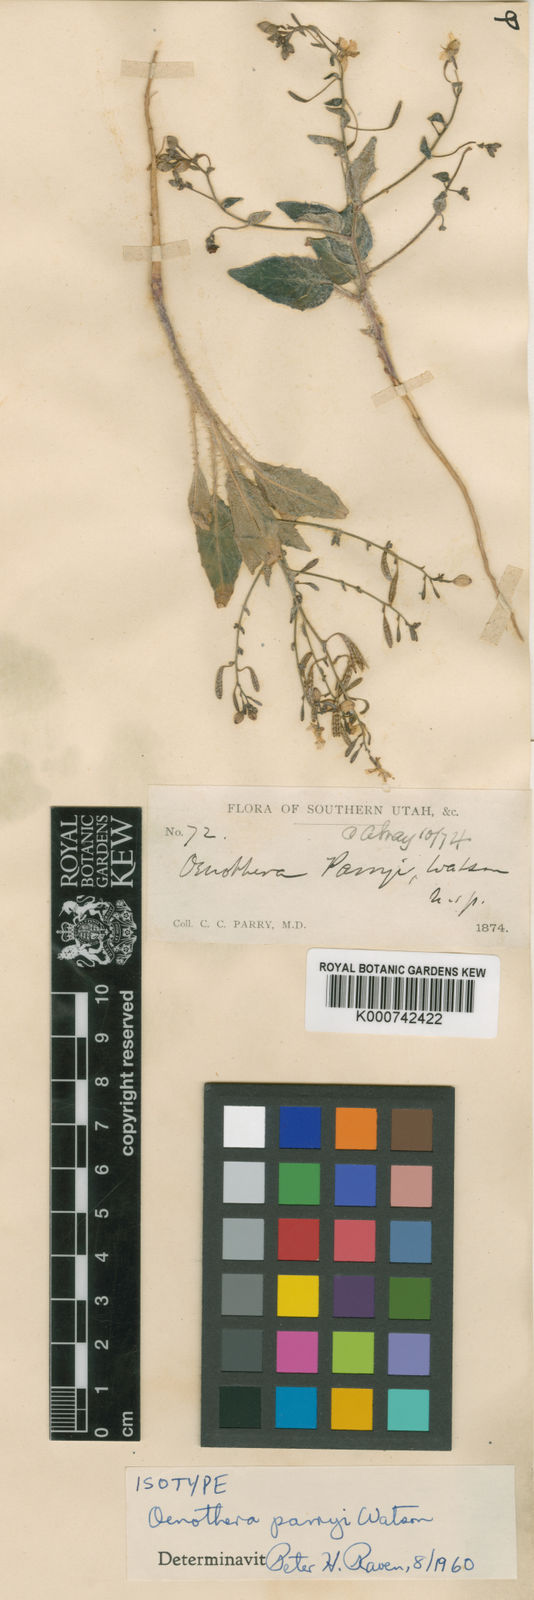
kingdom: Plantae
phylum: Tracheophyta
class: Magnoliopsida
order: Myrtales
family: Onagraceae
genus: Chylismia
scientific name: Chylismia parryi
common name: Redclay suncup
